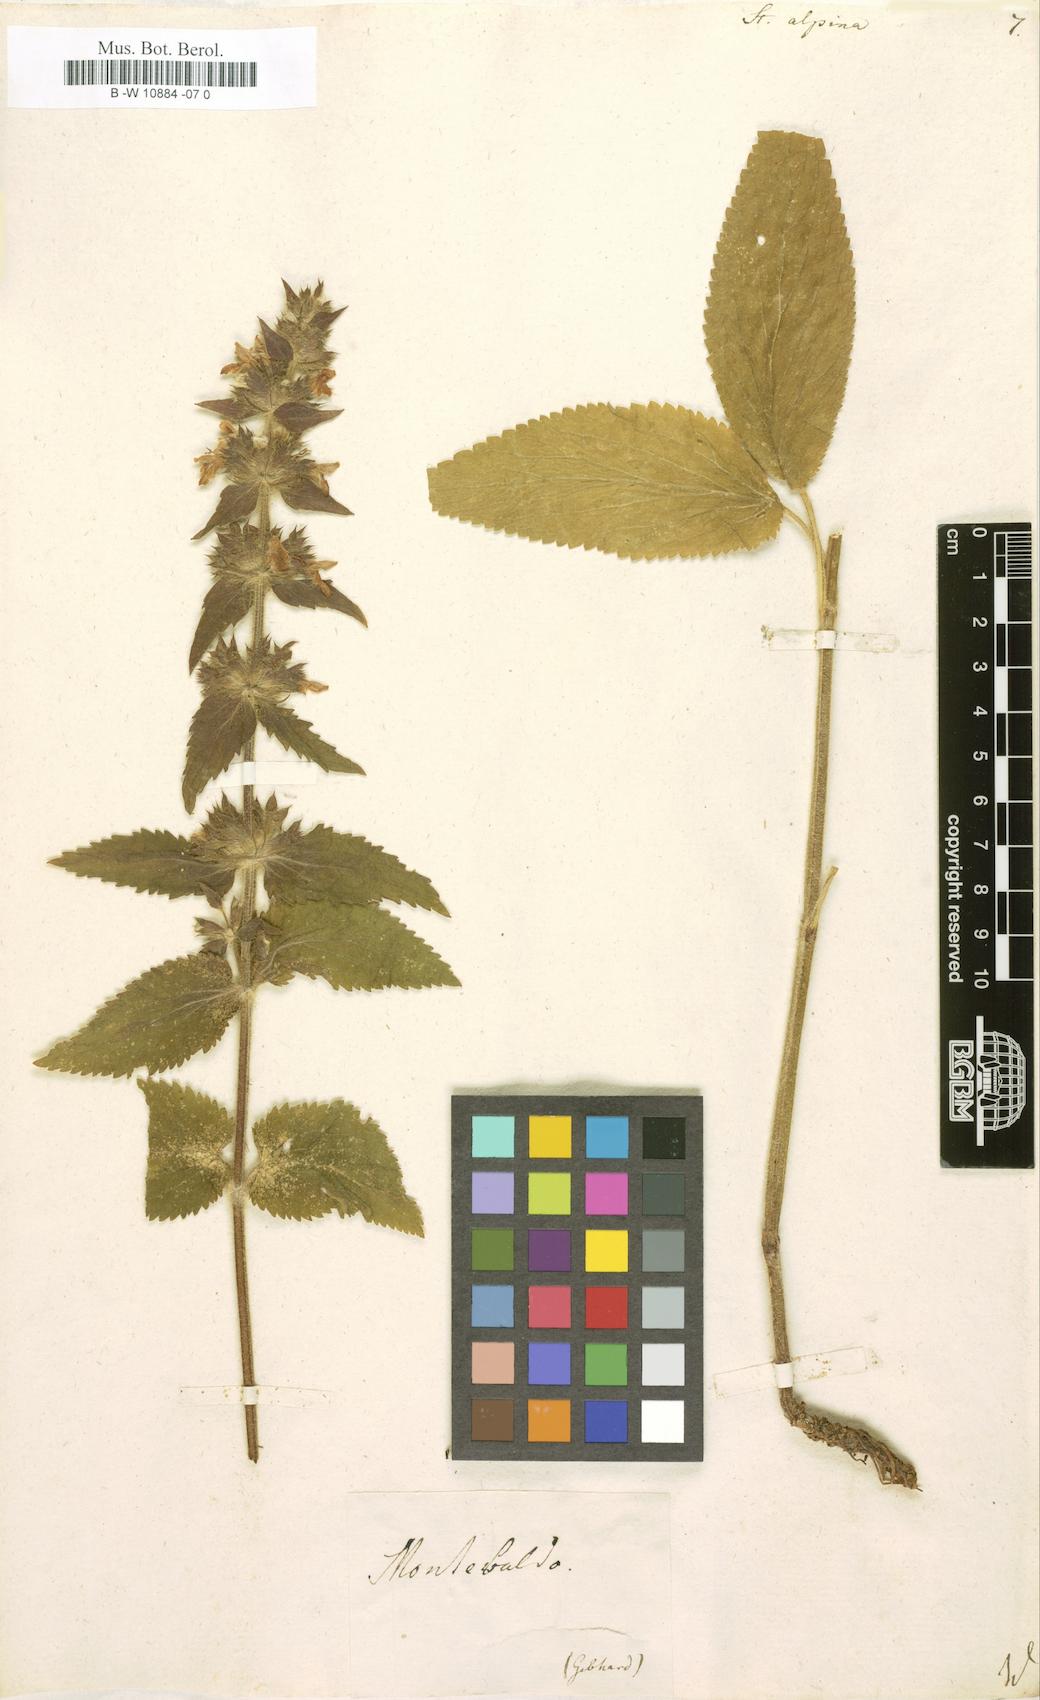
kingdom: Plantae
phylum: Tracheophyta
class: Magnoliopsida
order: Lamiales
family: Lamiaceae
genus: Stachys
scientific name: Stachys alpina
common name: Limestone woundwort
